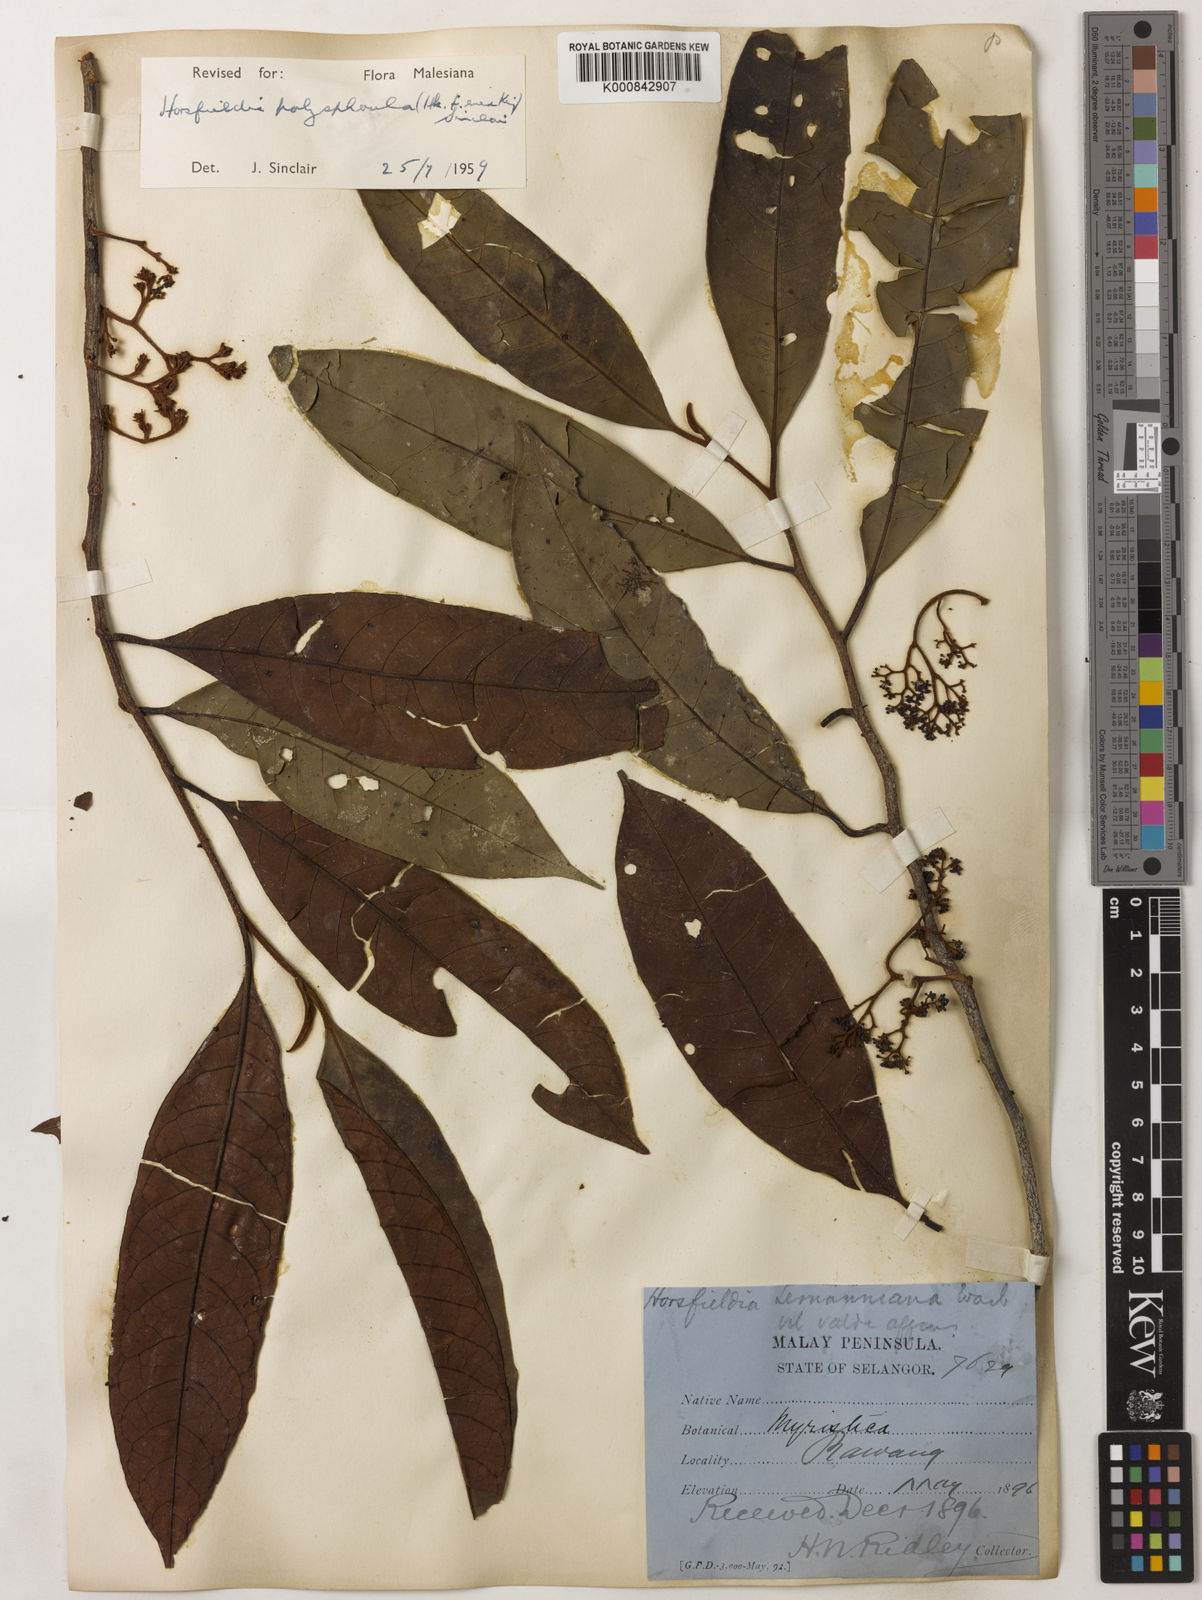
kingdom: Plantae
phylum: Tracheophyta
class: Magnoliopsida
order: Magnoliales
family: Myristicaceae
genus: Horsfieldia
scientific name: Horsfieldia
